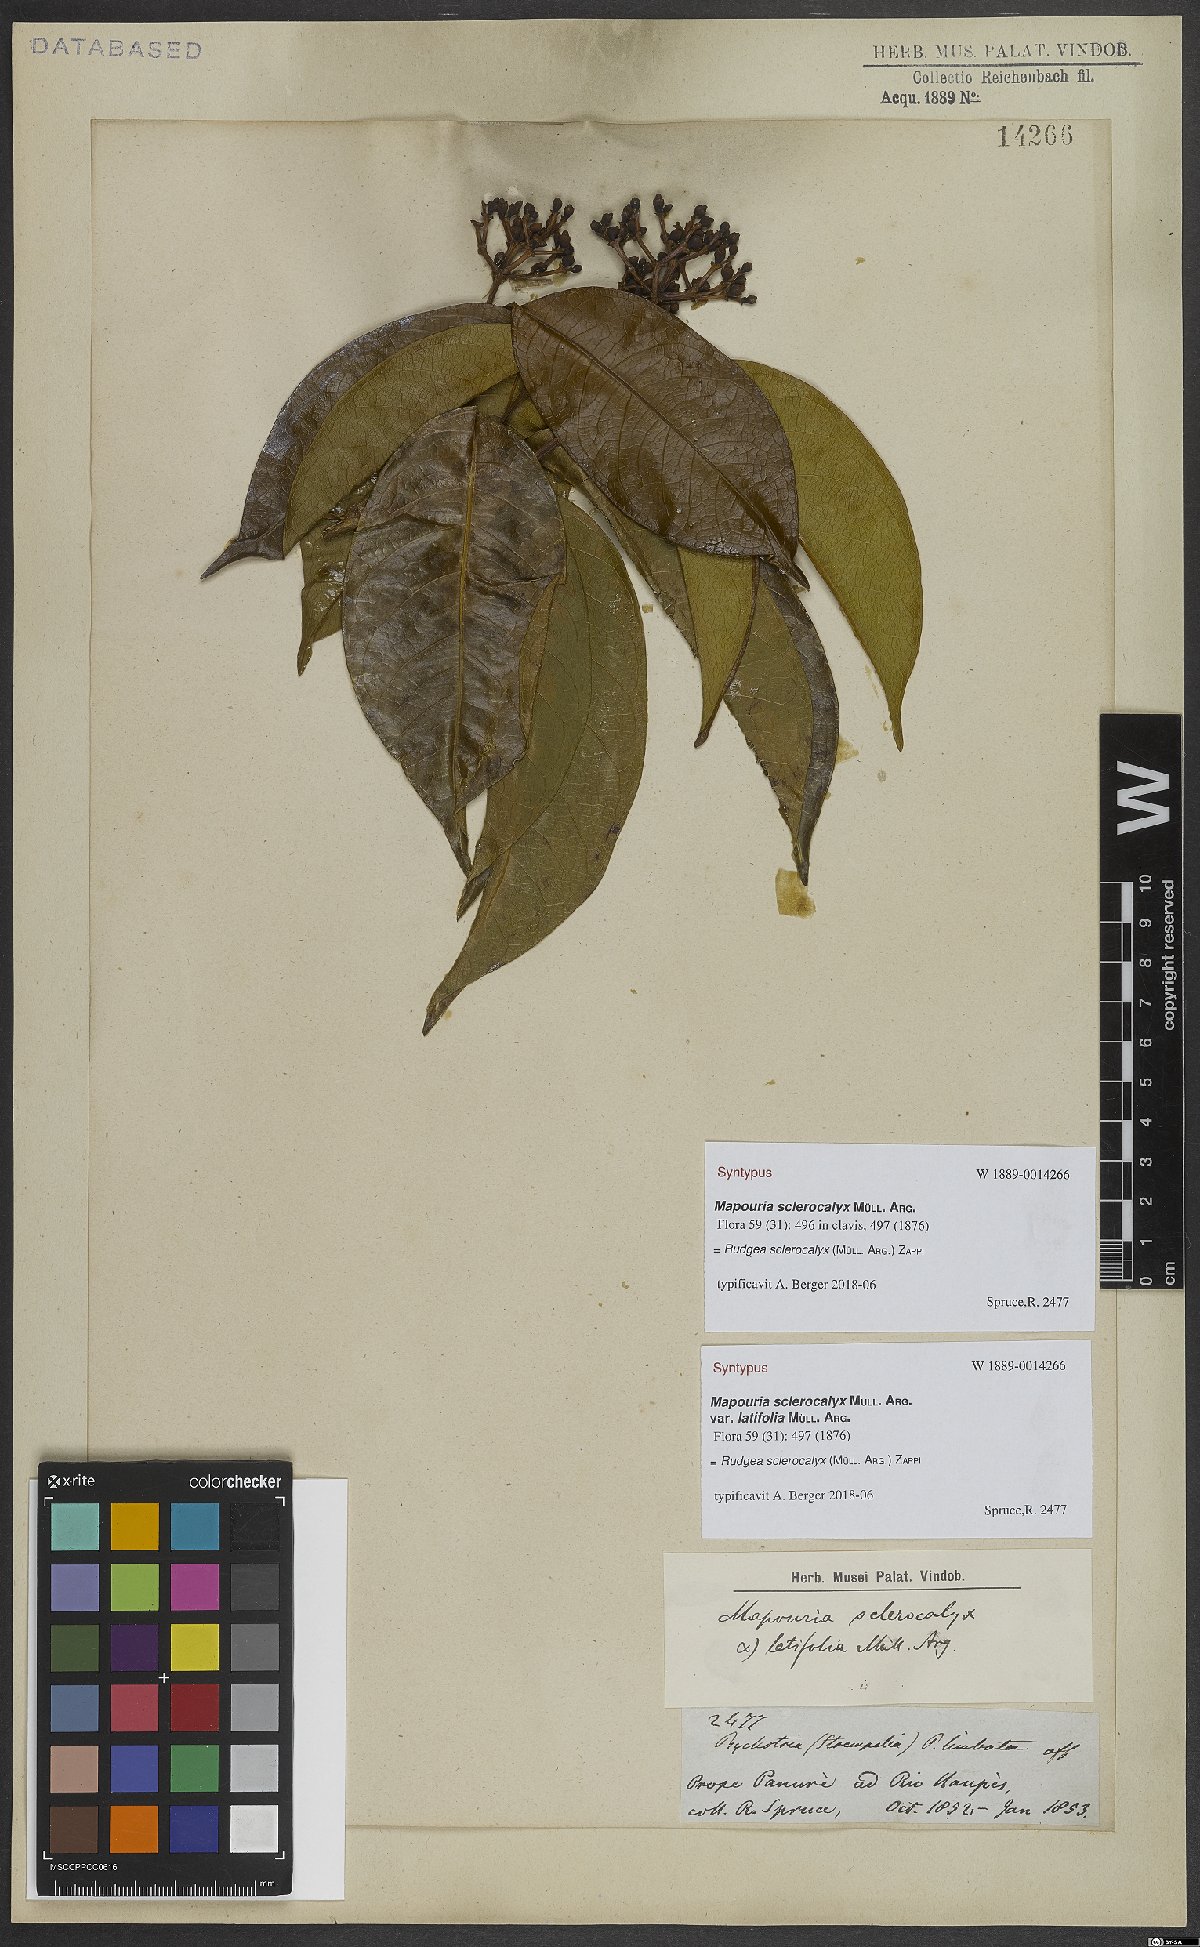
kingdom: Plantae
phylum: Tracheophyta
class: Magnoliopsida
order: Gentianales
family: Rubiaceae
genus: Rudgea
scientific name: Rudgea sclerocalyx
